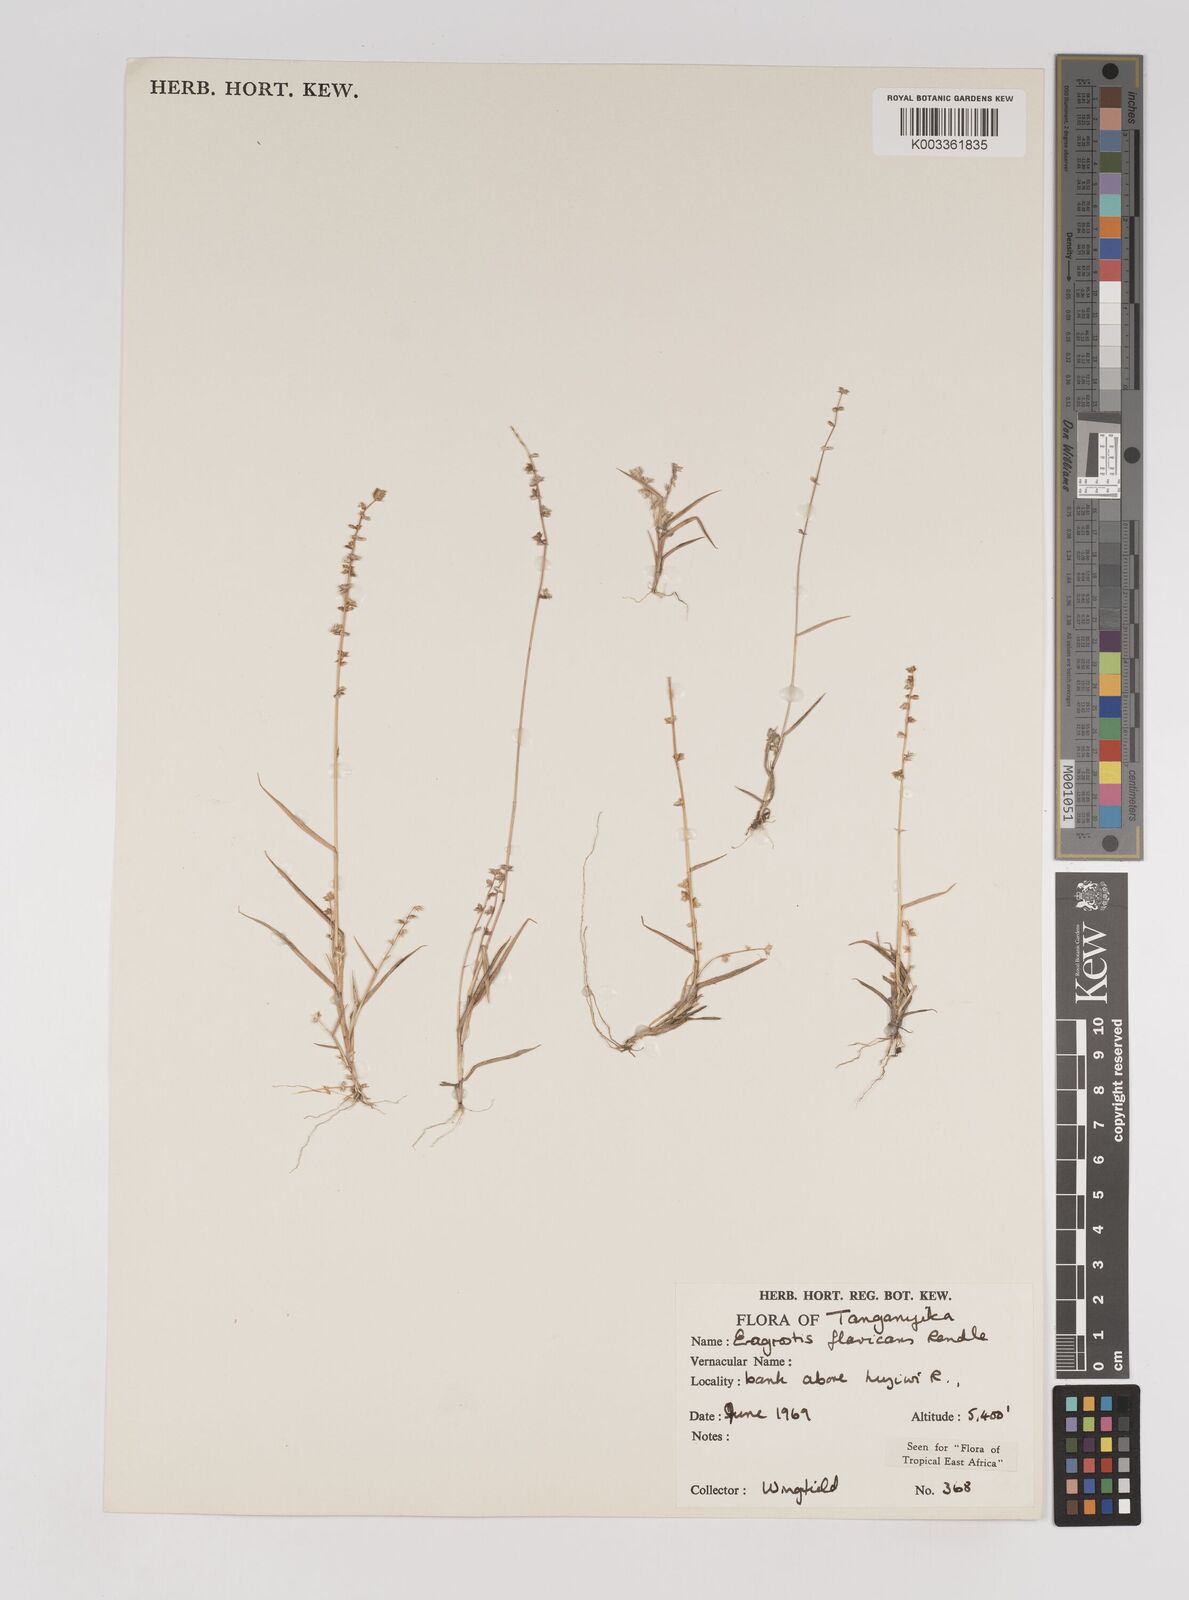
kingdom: Plantae
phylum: Tracheophyta
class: Liliopsida
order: Poales
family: Poaceae
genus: Eragrostis
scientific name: Eragrostis flavicans
